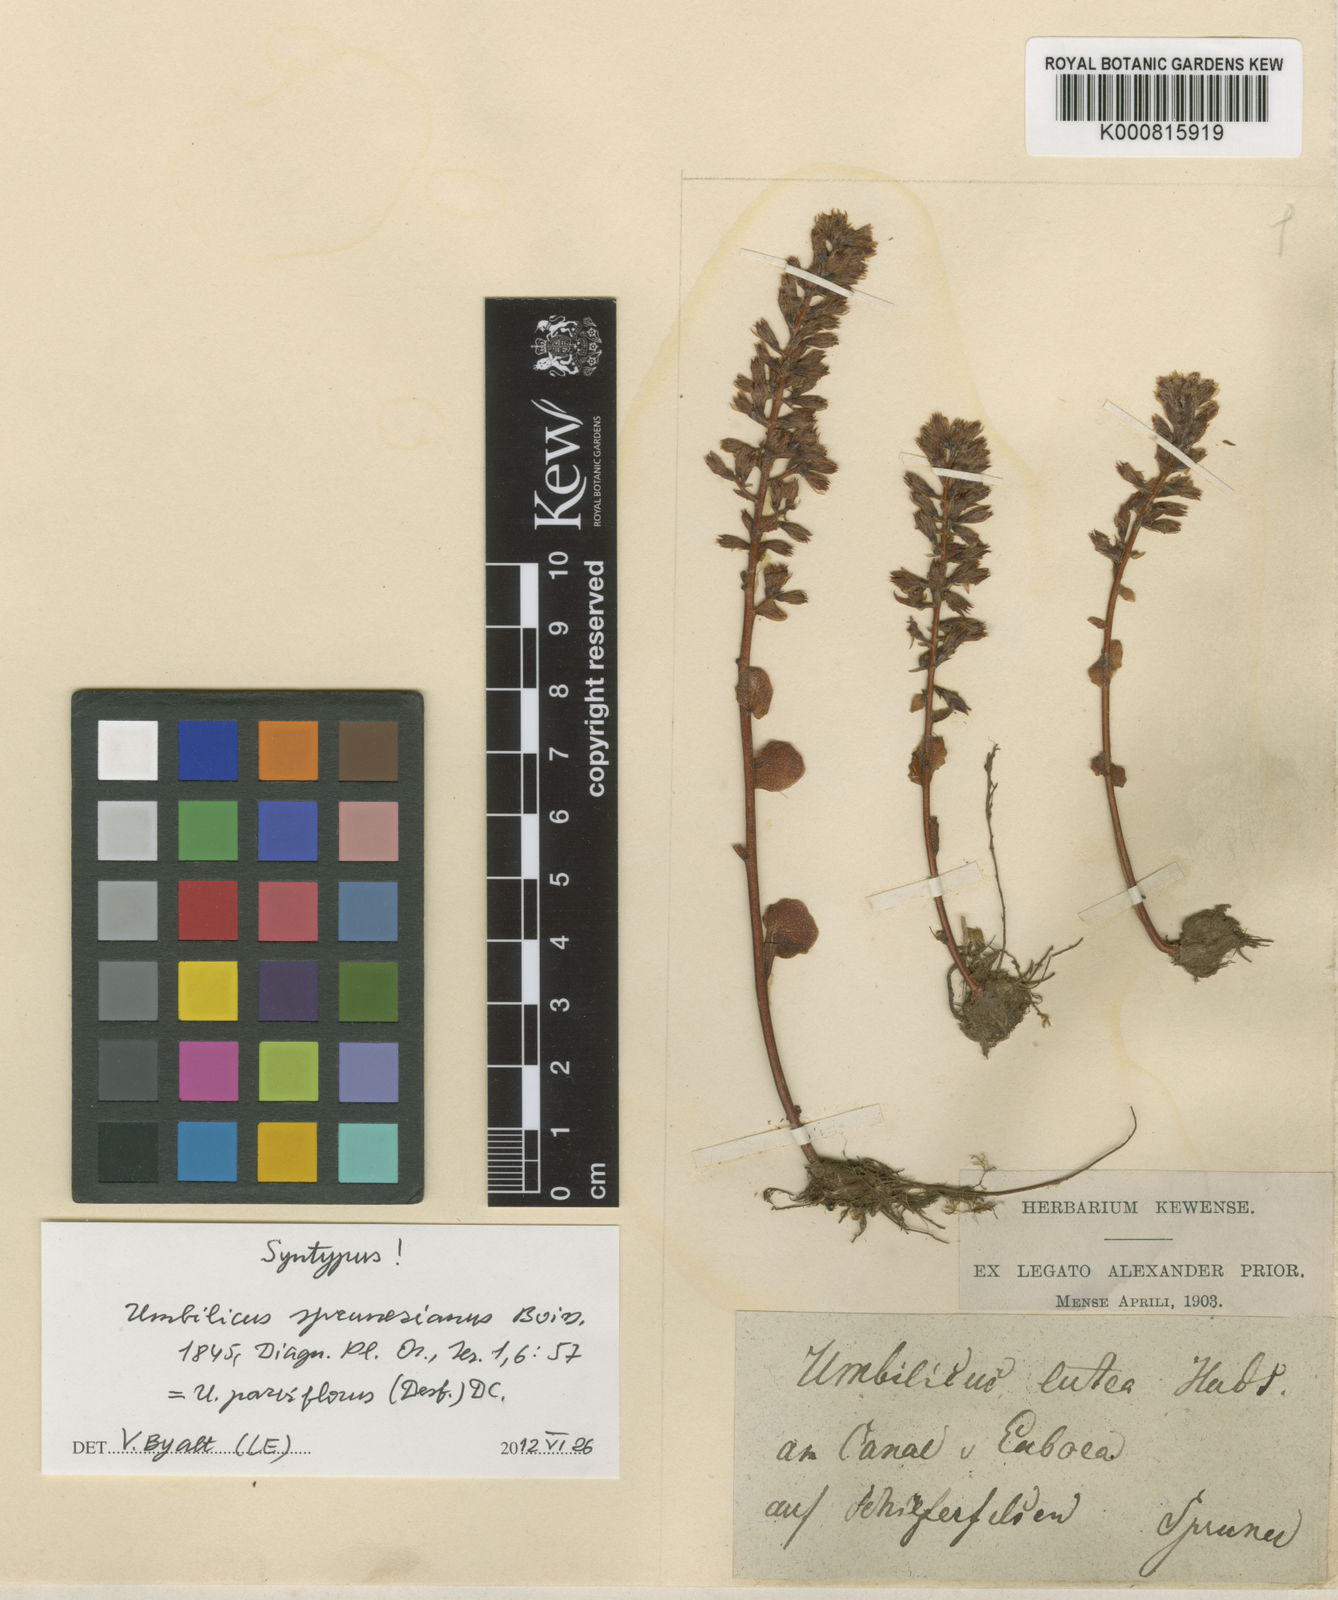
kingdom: Plantae
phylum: Tracheophyta
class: Magnoliopsida
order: Saxifragales
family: Crassulaceae
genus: Umbilicus
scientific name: Umbilicus parviflorus
